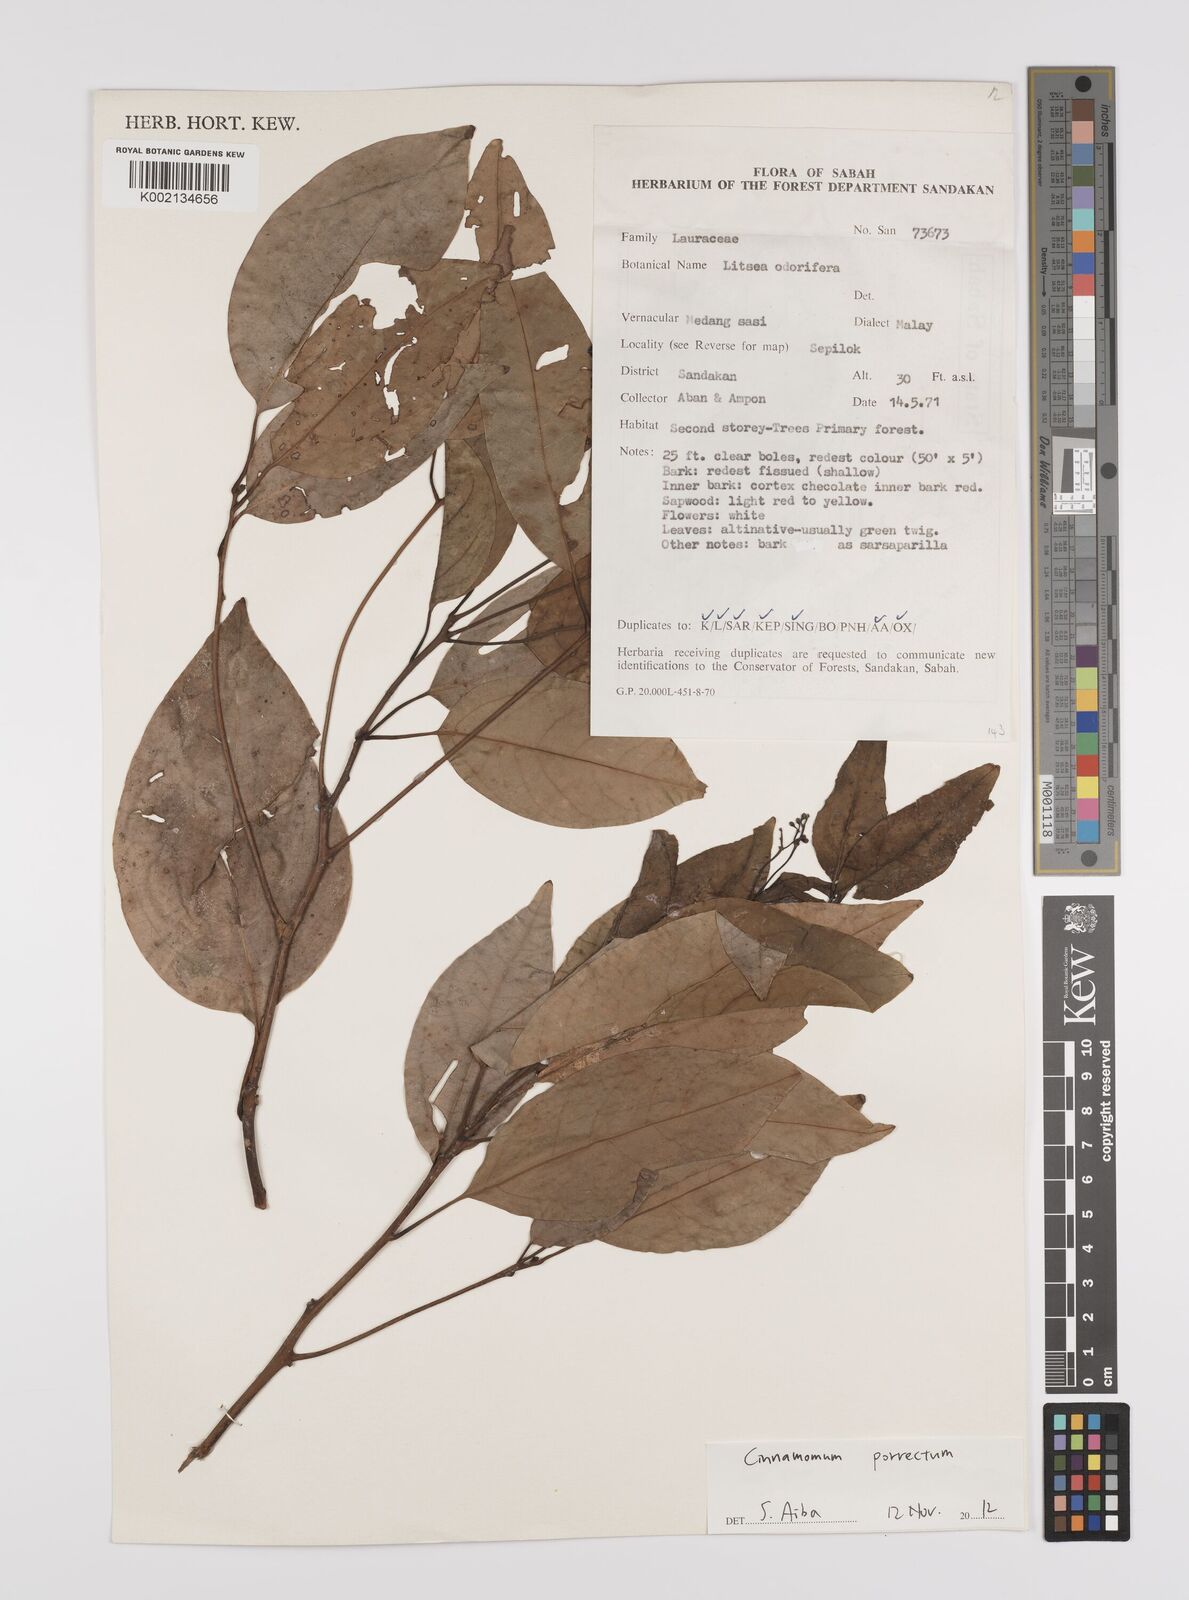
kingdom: Plantae
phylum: Tracheophyta
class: Magnoliopsida
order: Laurales
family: Lauraceae
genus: Cinnamomum
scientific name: Cinnamomum parthenoxylon
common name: Martaban camphor wood
